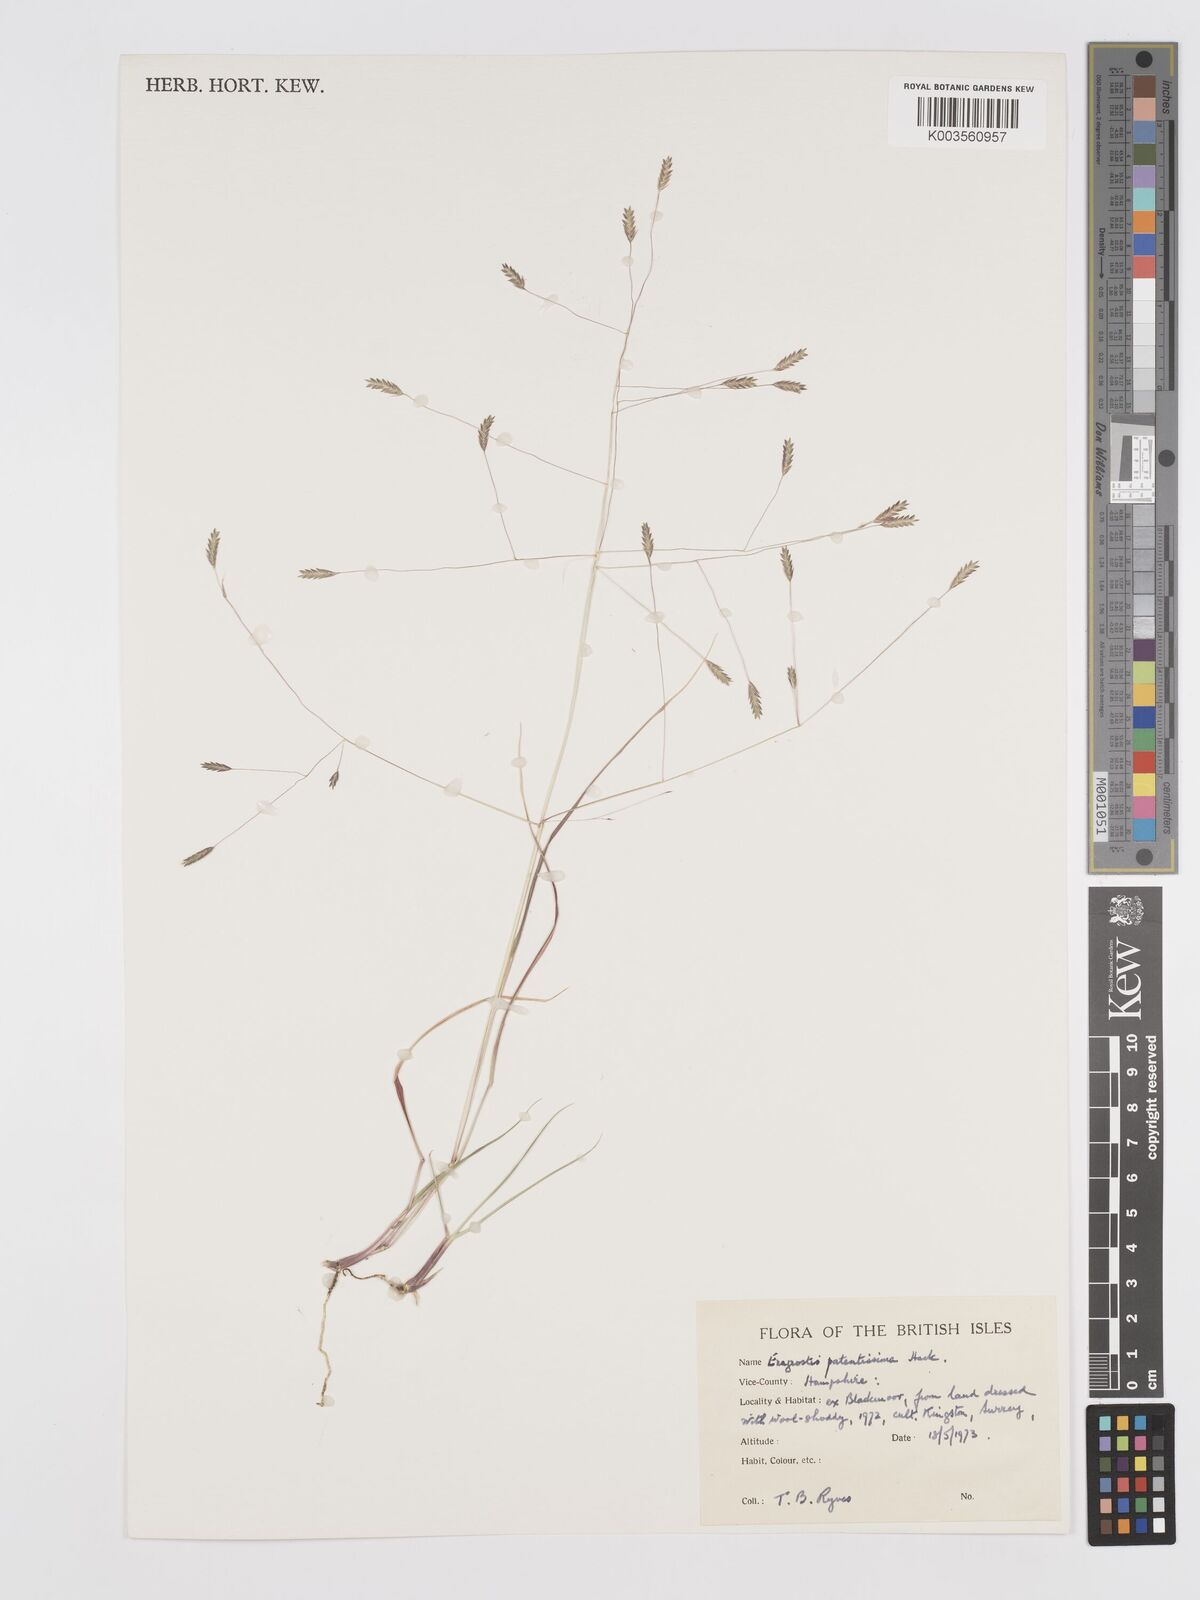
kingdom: Plantae
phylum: Tracheophyta
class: Liliopsida
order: Poales
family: Poaceae
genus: Eragrostis
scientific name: Eragrostis patentissima
